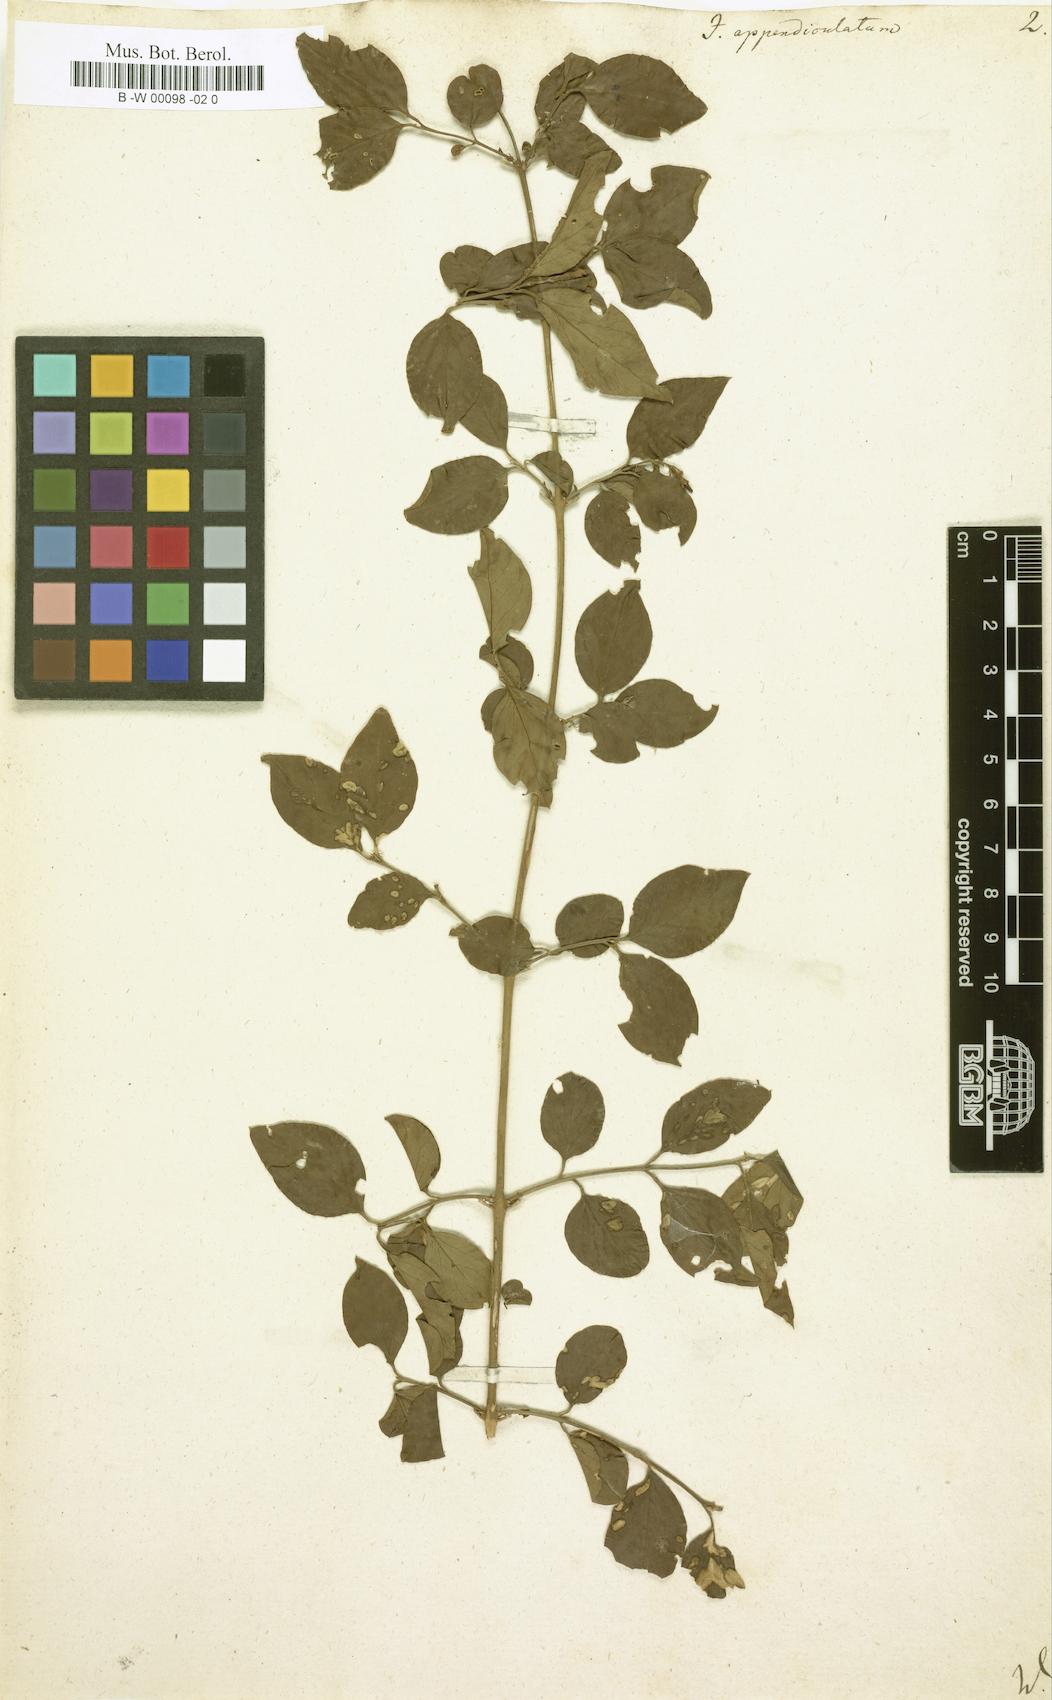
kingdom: Plantae
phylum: Tracheophyta
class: Magnoliopsida
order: Lamiales
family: Oleaceae
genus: Jasminum
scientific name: Jasminum auriculatum
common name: Needle-flower jasmine
